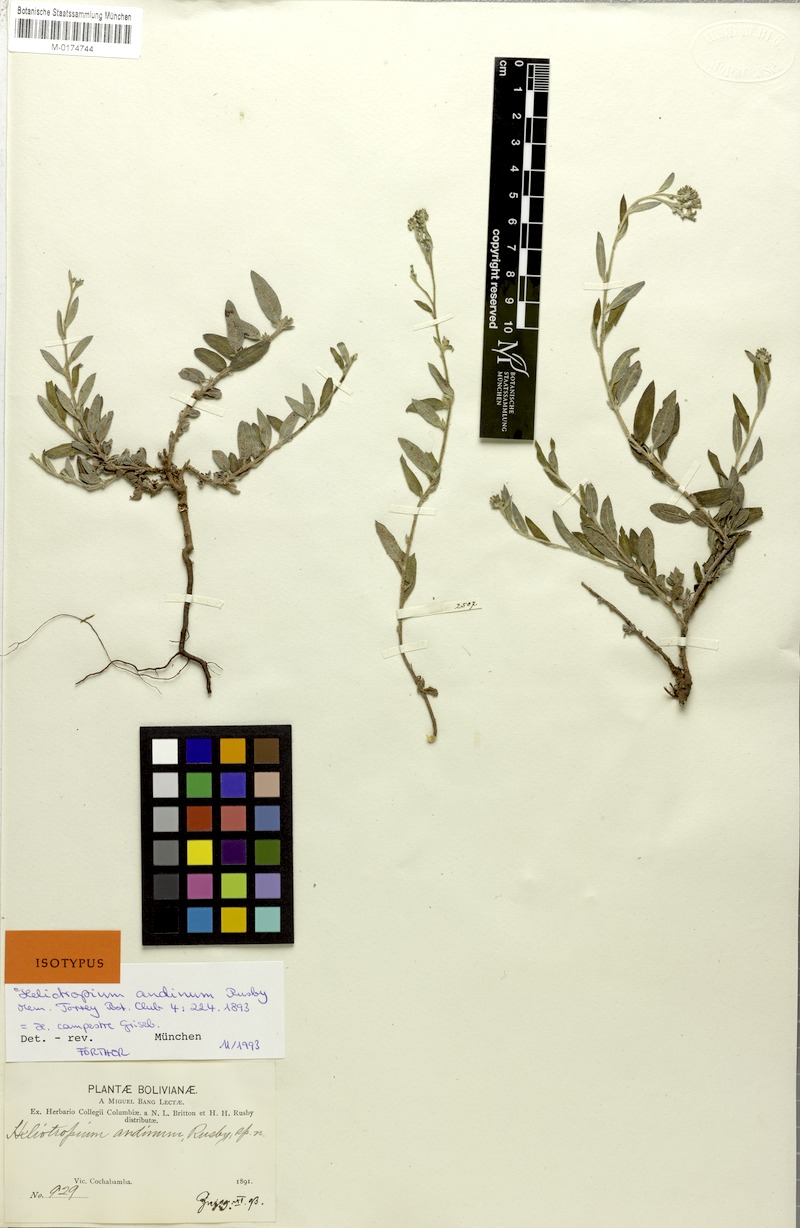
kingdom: Plantae
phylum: Tracheophyta
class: Magnoliopsida
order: Boraginales
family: Heliotropiaceae
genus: Euploca
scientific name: Euploca campestris
